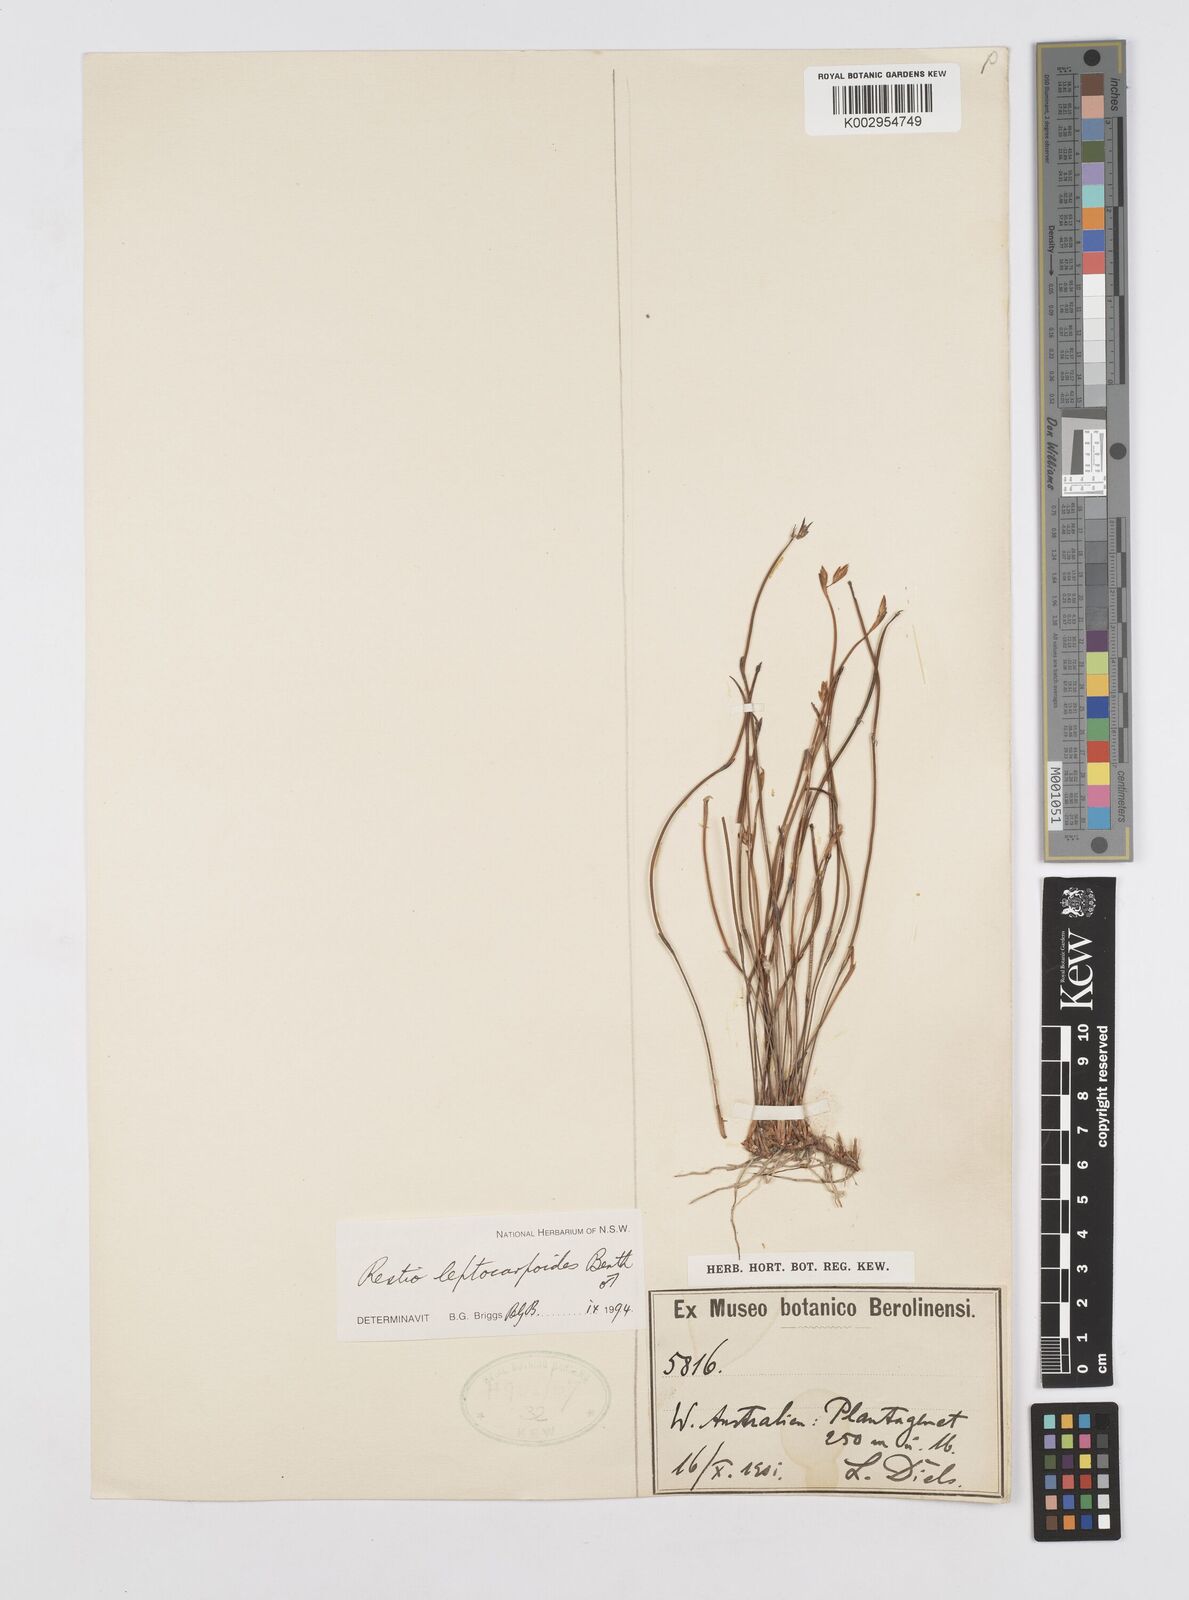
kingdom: Plantae
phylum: Tracheophyta
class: Liliopsida
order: Poales
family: Restionaceae
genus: Cytogonidium
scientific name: Cytogonidium leptocarpoides
